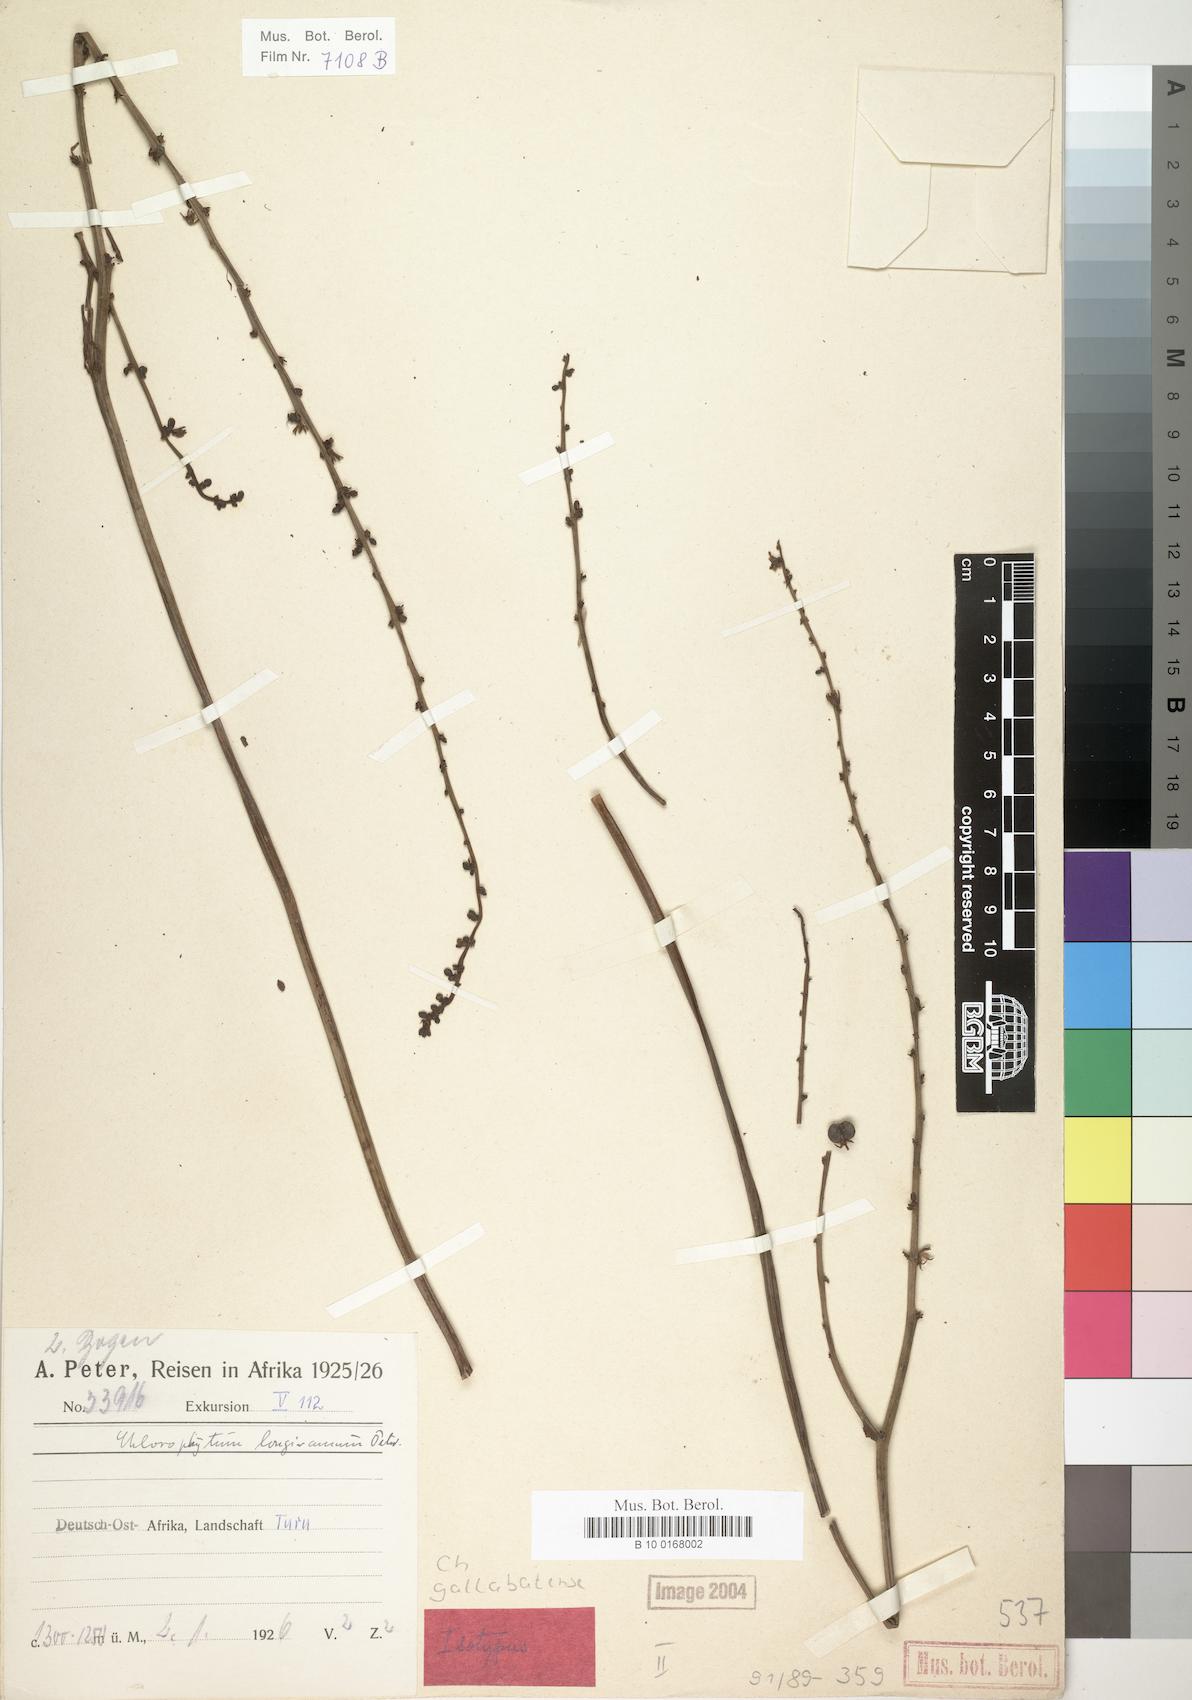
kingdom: Plantae
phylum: Tracheophyta
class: Liliopsida
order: Asparagales
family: Asparagaceae
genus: Chlorophytum
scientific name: Chlorophytum gallabatense
